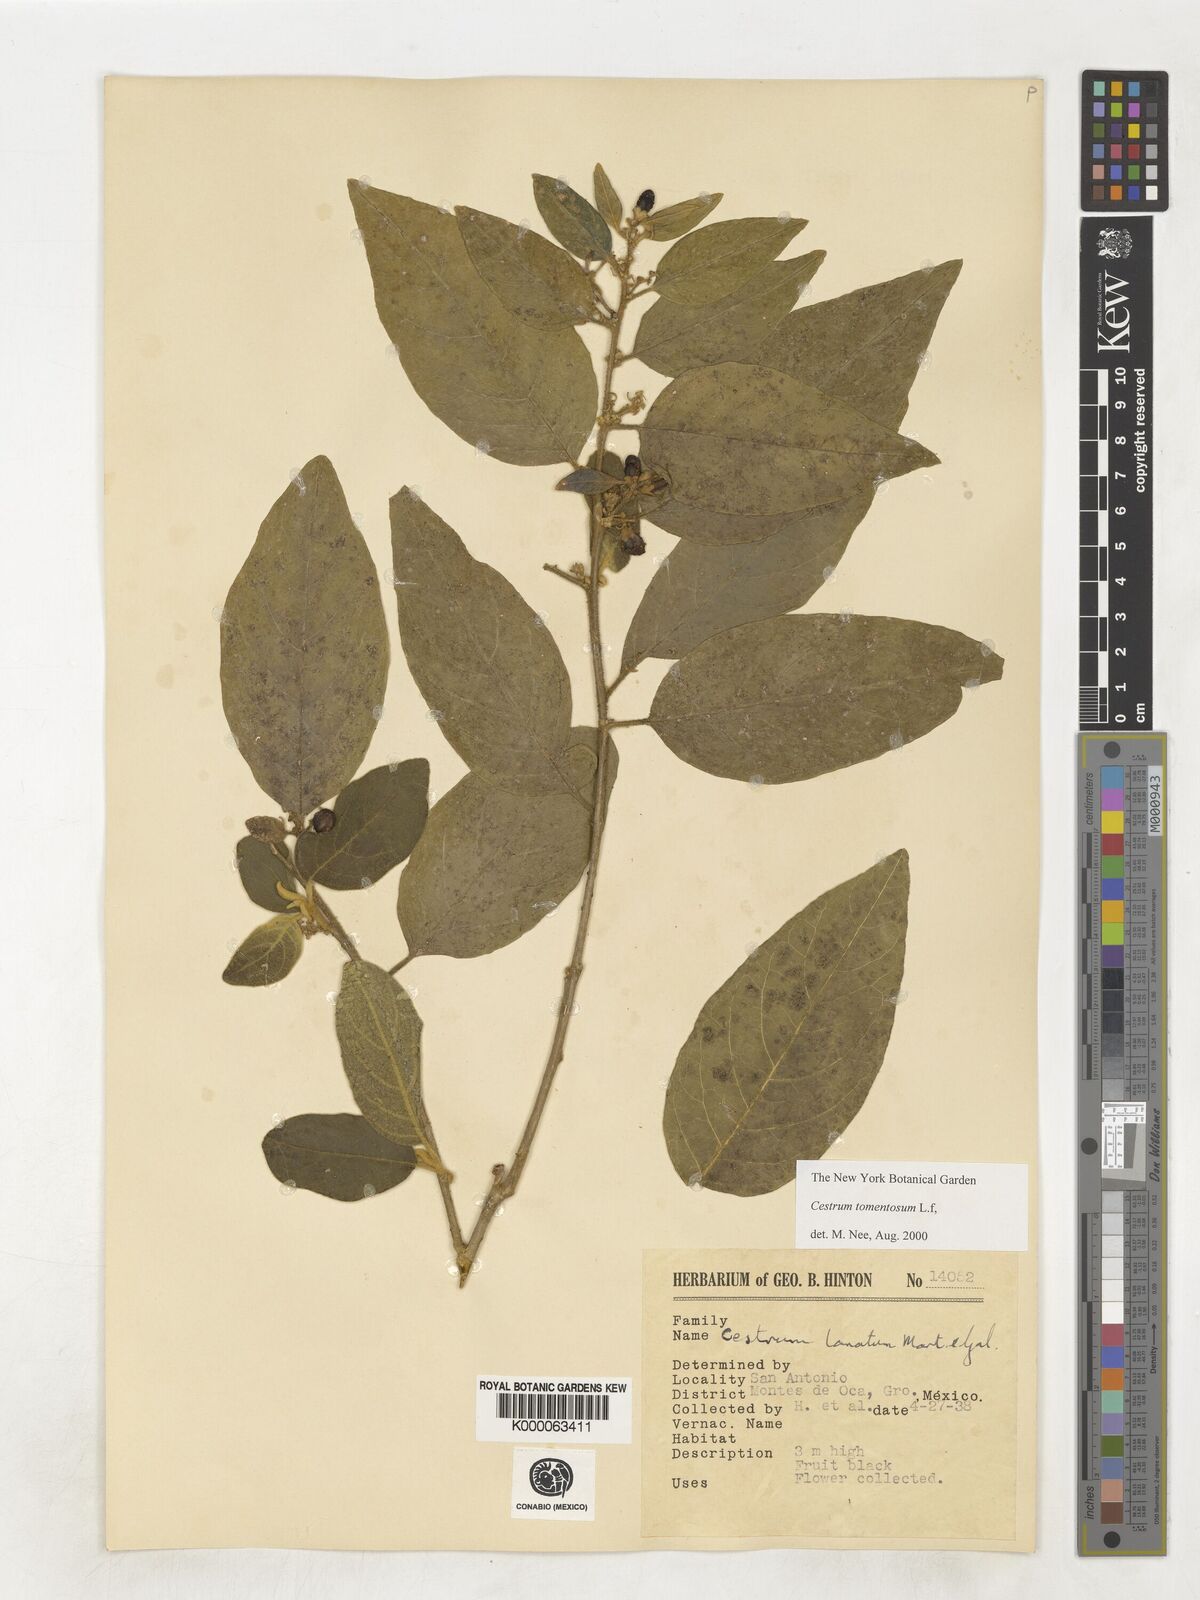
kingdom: Plantae
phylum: Tracheophyta
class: Magnoliopsida
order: Solanales
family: Solanaceae
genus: Cestrum
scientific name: Cestrum tomentosum
